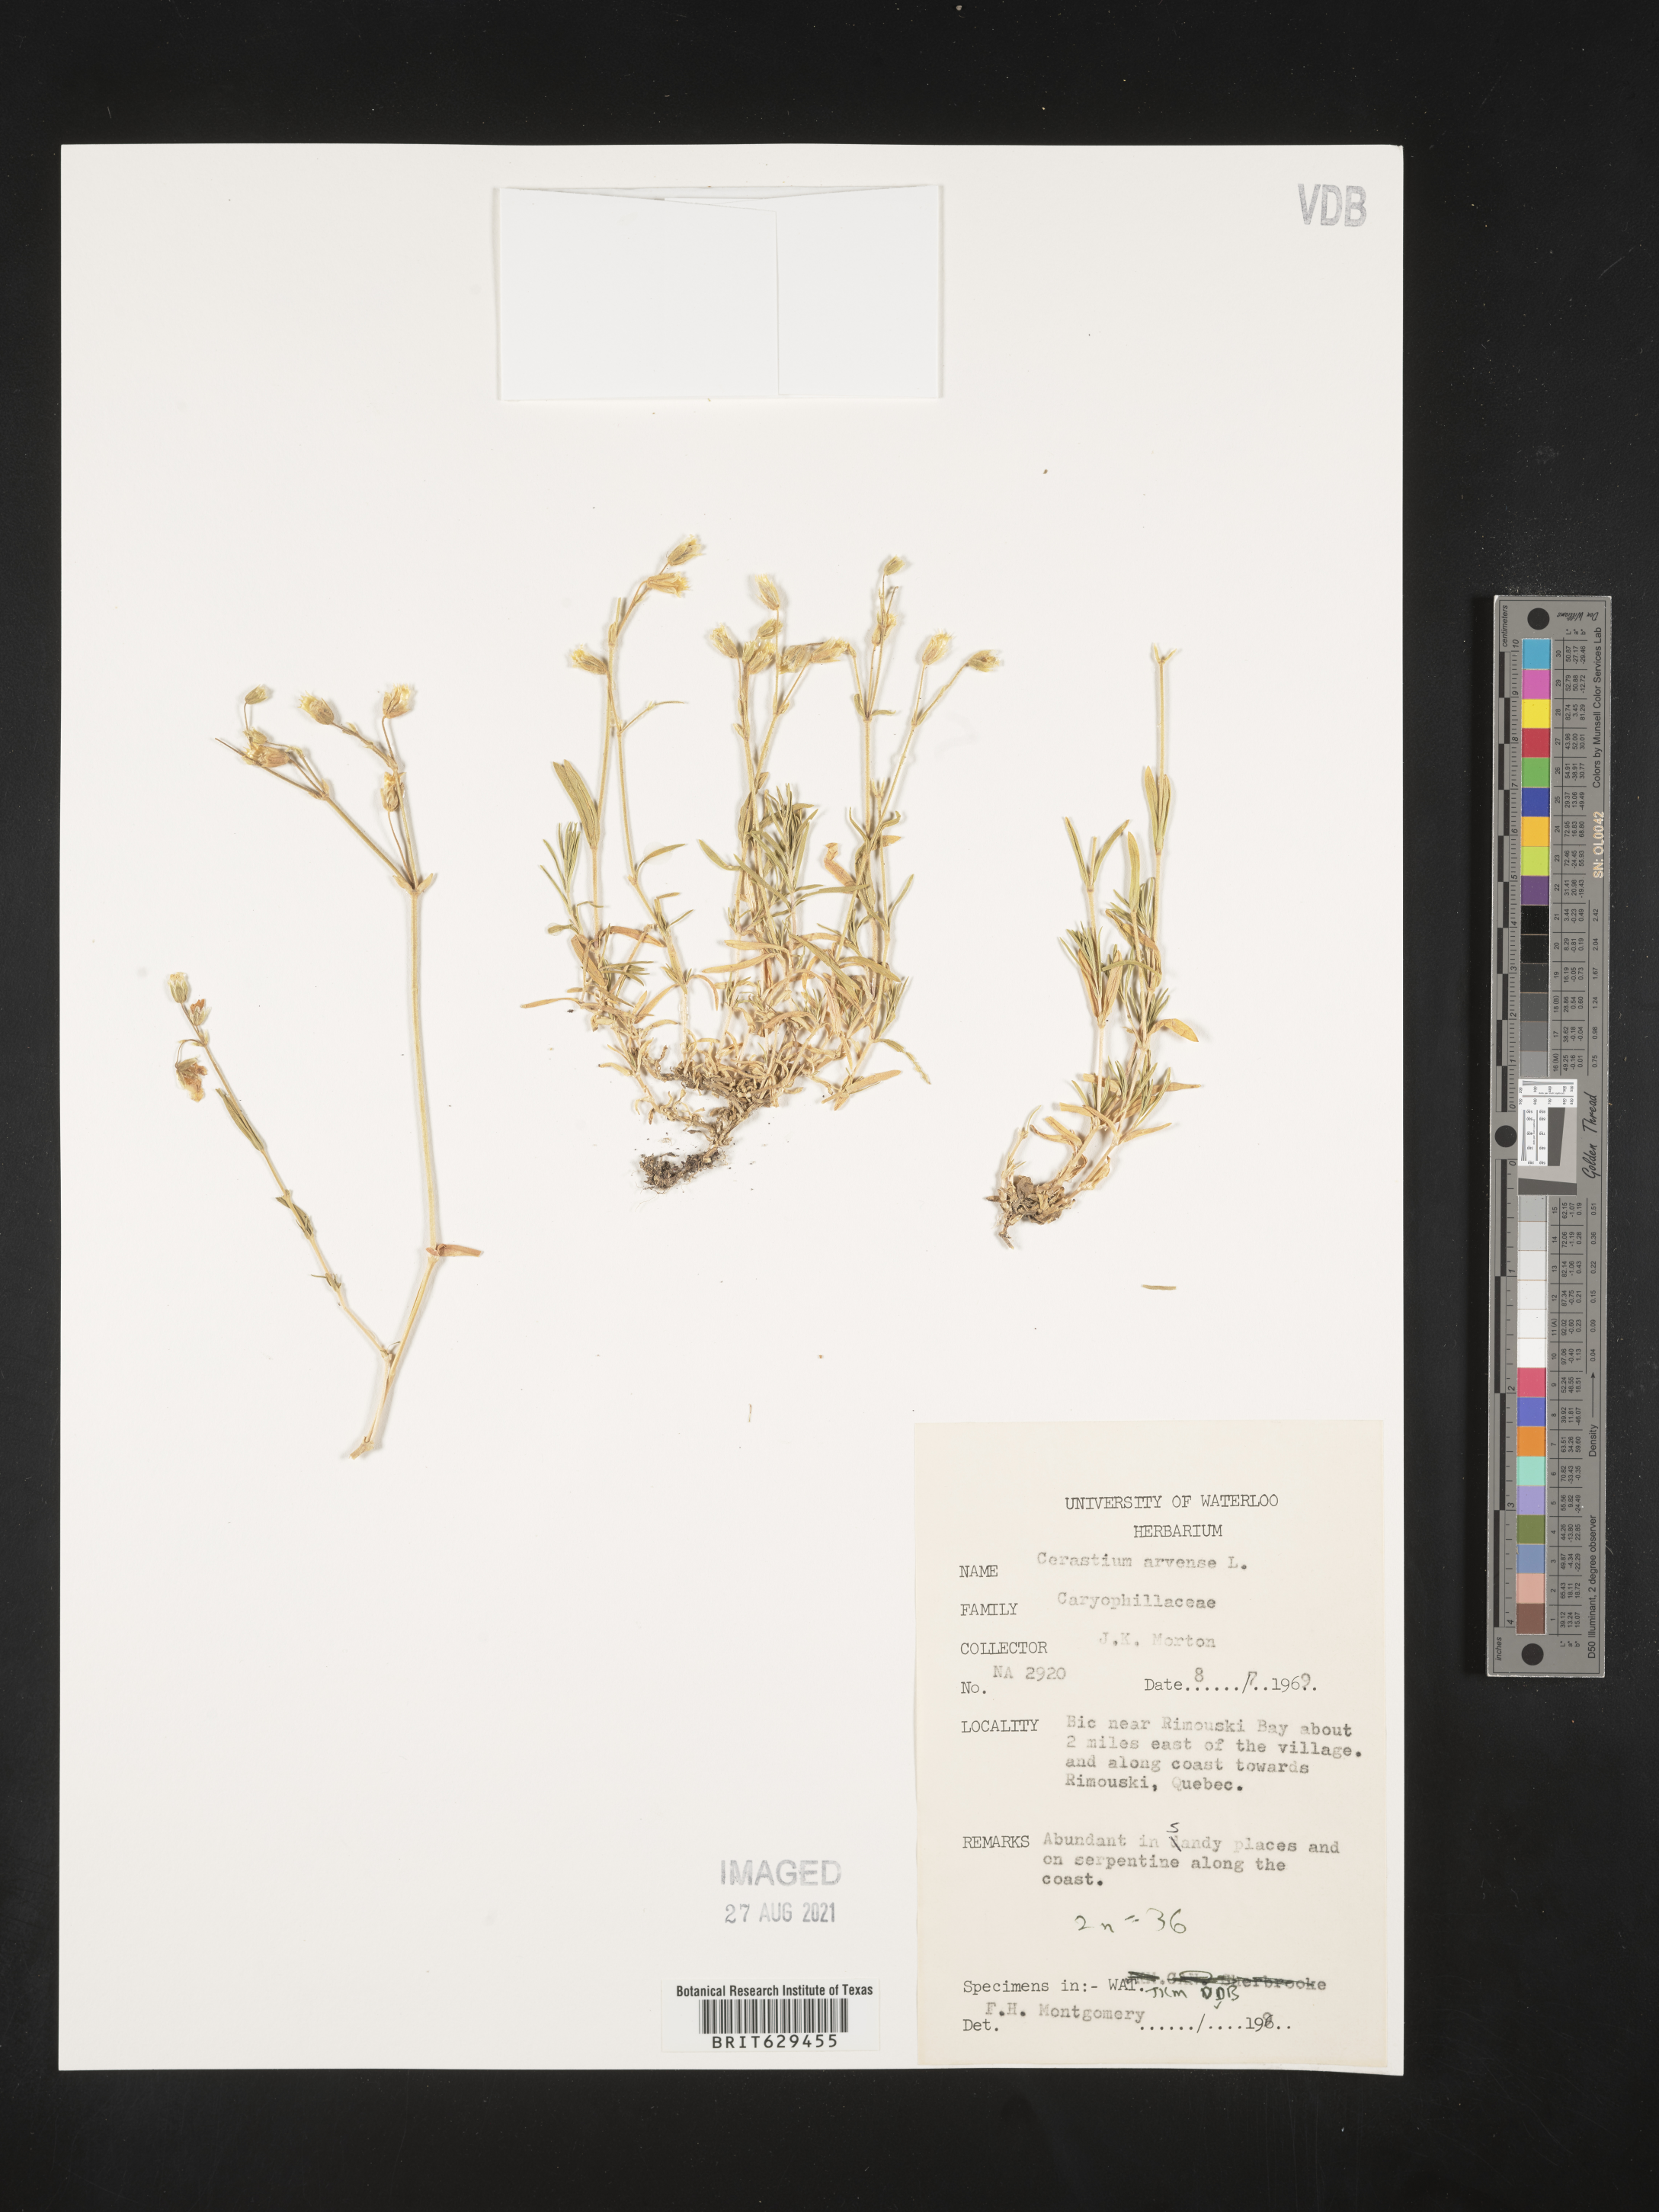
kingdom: Plantae
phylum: Tracheophyta
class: Magnoliopsida
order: Caryophyllales
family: Caryophyllaceae
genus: Cerastium
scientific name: Cerastium arvense
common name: Field mouse-ear
